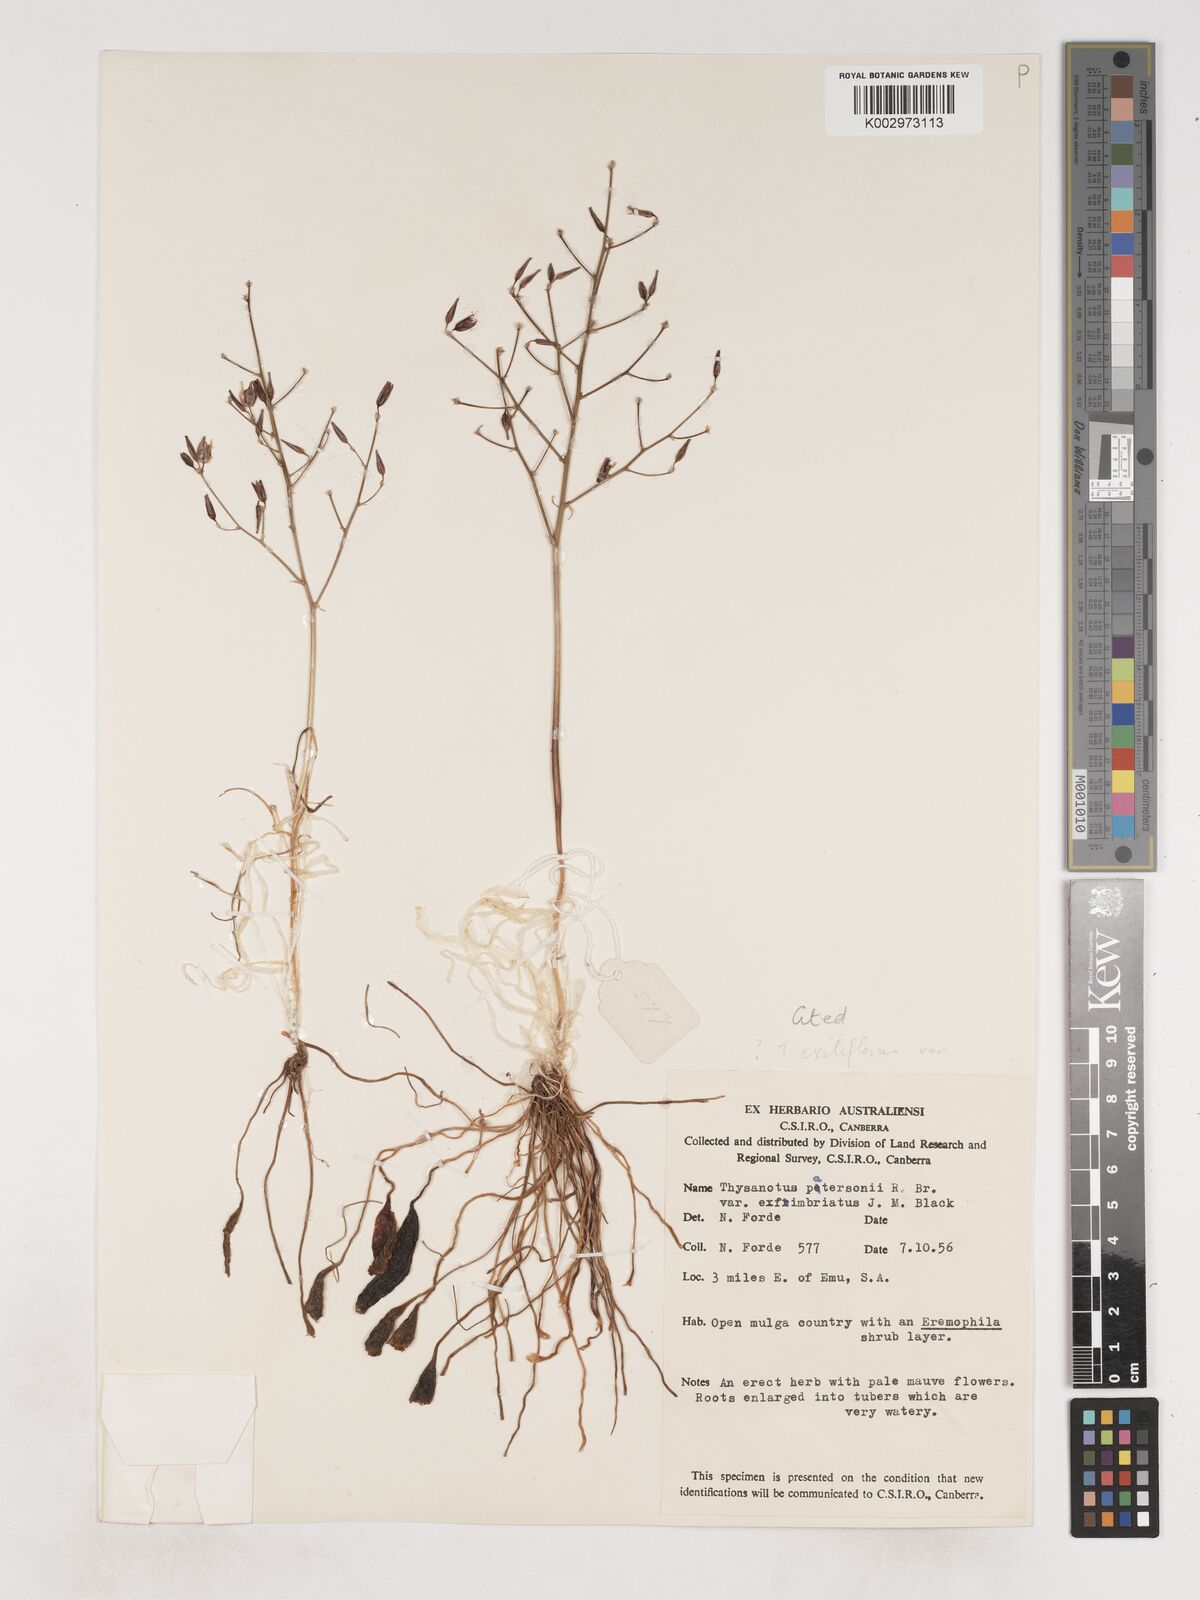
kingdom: Plantae
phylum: Tracheophyta
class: Liliopsida
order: Asparagales
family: Asparagaceae
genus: Thysanotus
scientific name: Thysanotus exiliflorus
